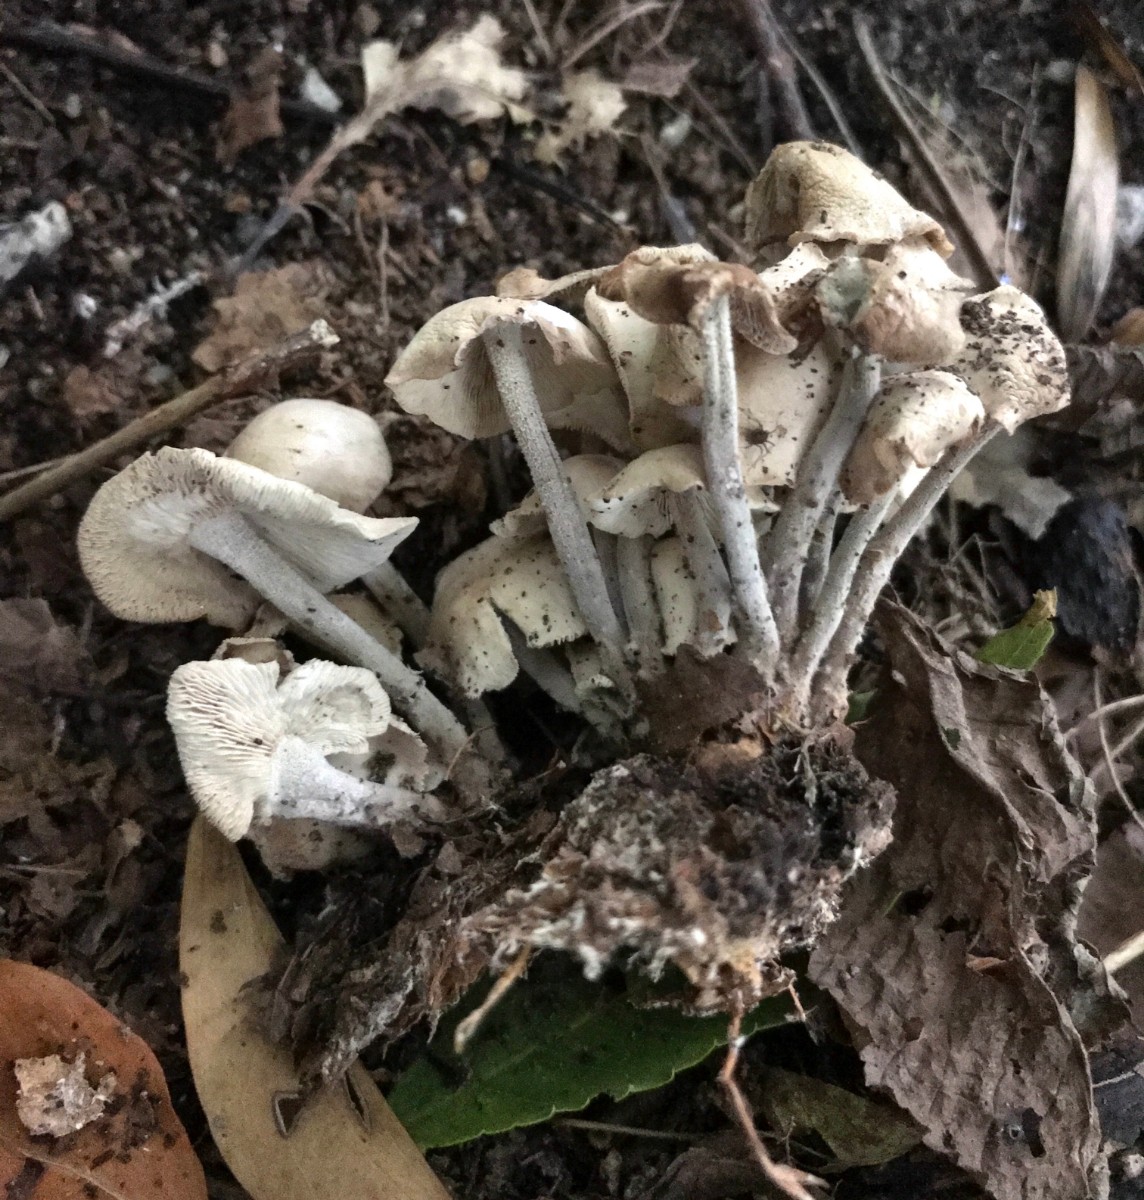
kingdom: Fungi
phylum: Basidiomycota
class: Agaricomycetes
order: Agaricales
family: Omphalotaceae
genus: Collybiopsis
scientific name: Collybiopsis confluens
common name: knippe-fladhat
